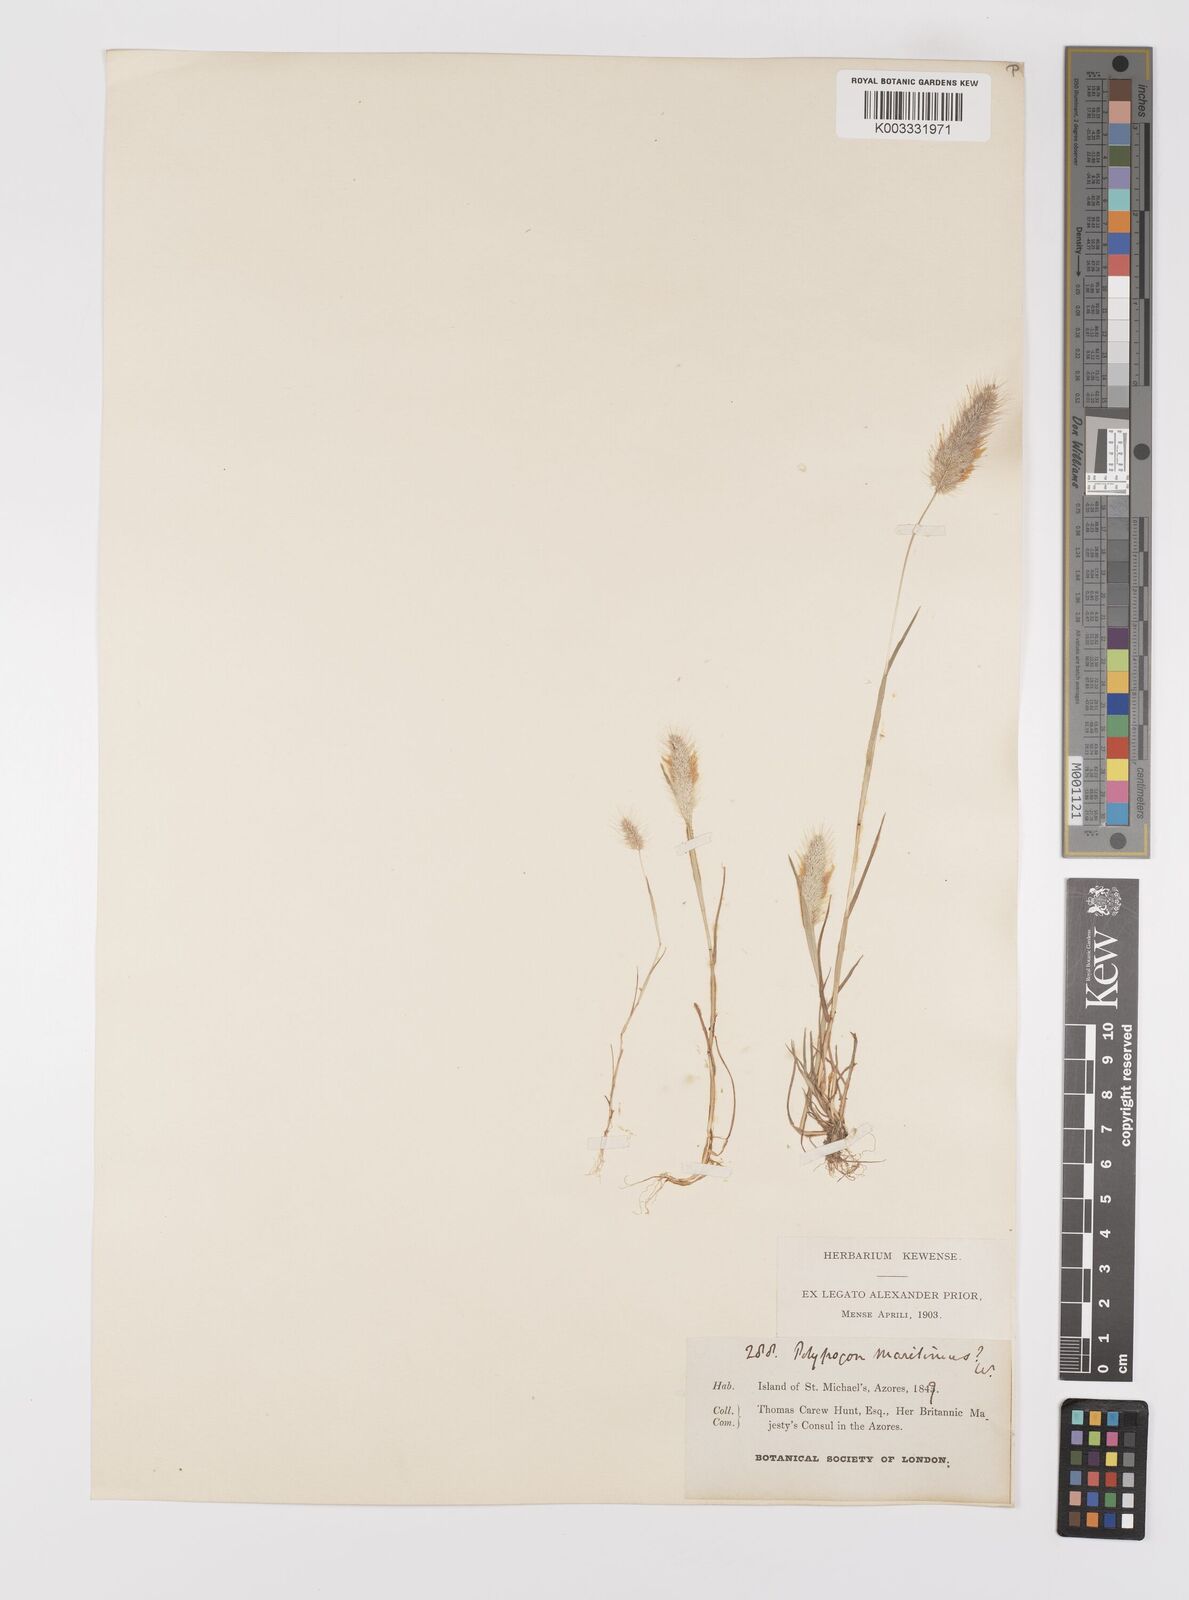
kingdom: Plantae
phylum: Tracheophyta
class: Liliopsida
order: Poales
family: Poaceae
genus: Polypogon
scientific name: Polypogon maritimus
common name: Mediterranean rabbitsfoot grass
